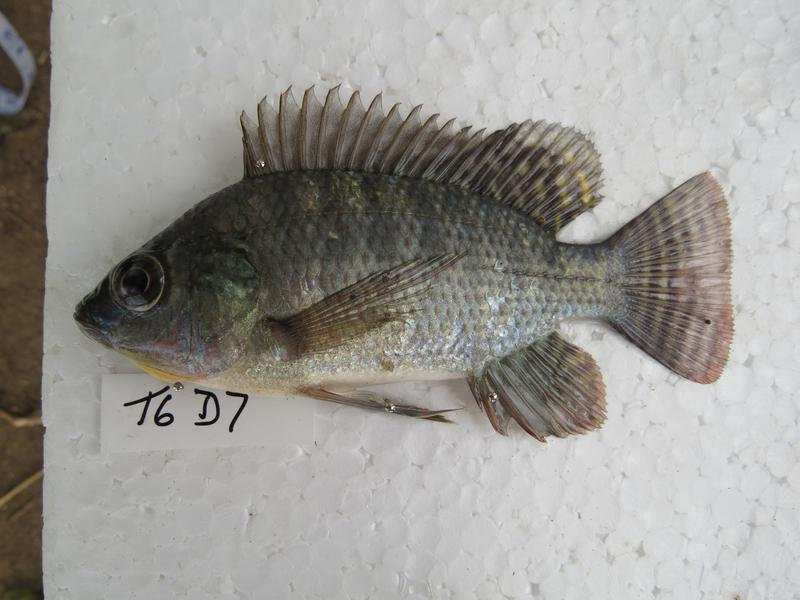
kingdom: Animalia
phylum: Chordata
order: Perciformes
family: Cichlidae
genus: Oreochromis
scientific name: Oreochromis niloticus
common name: Nile tilapia
